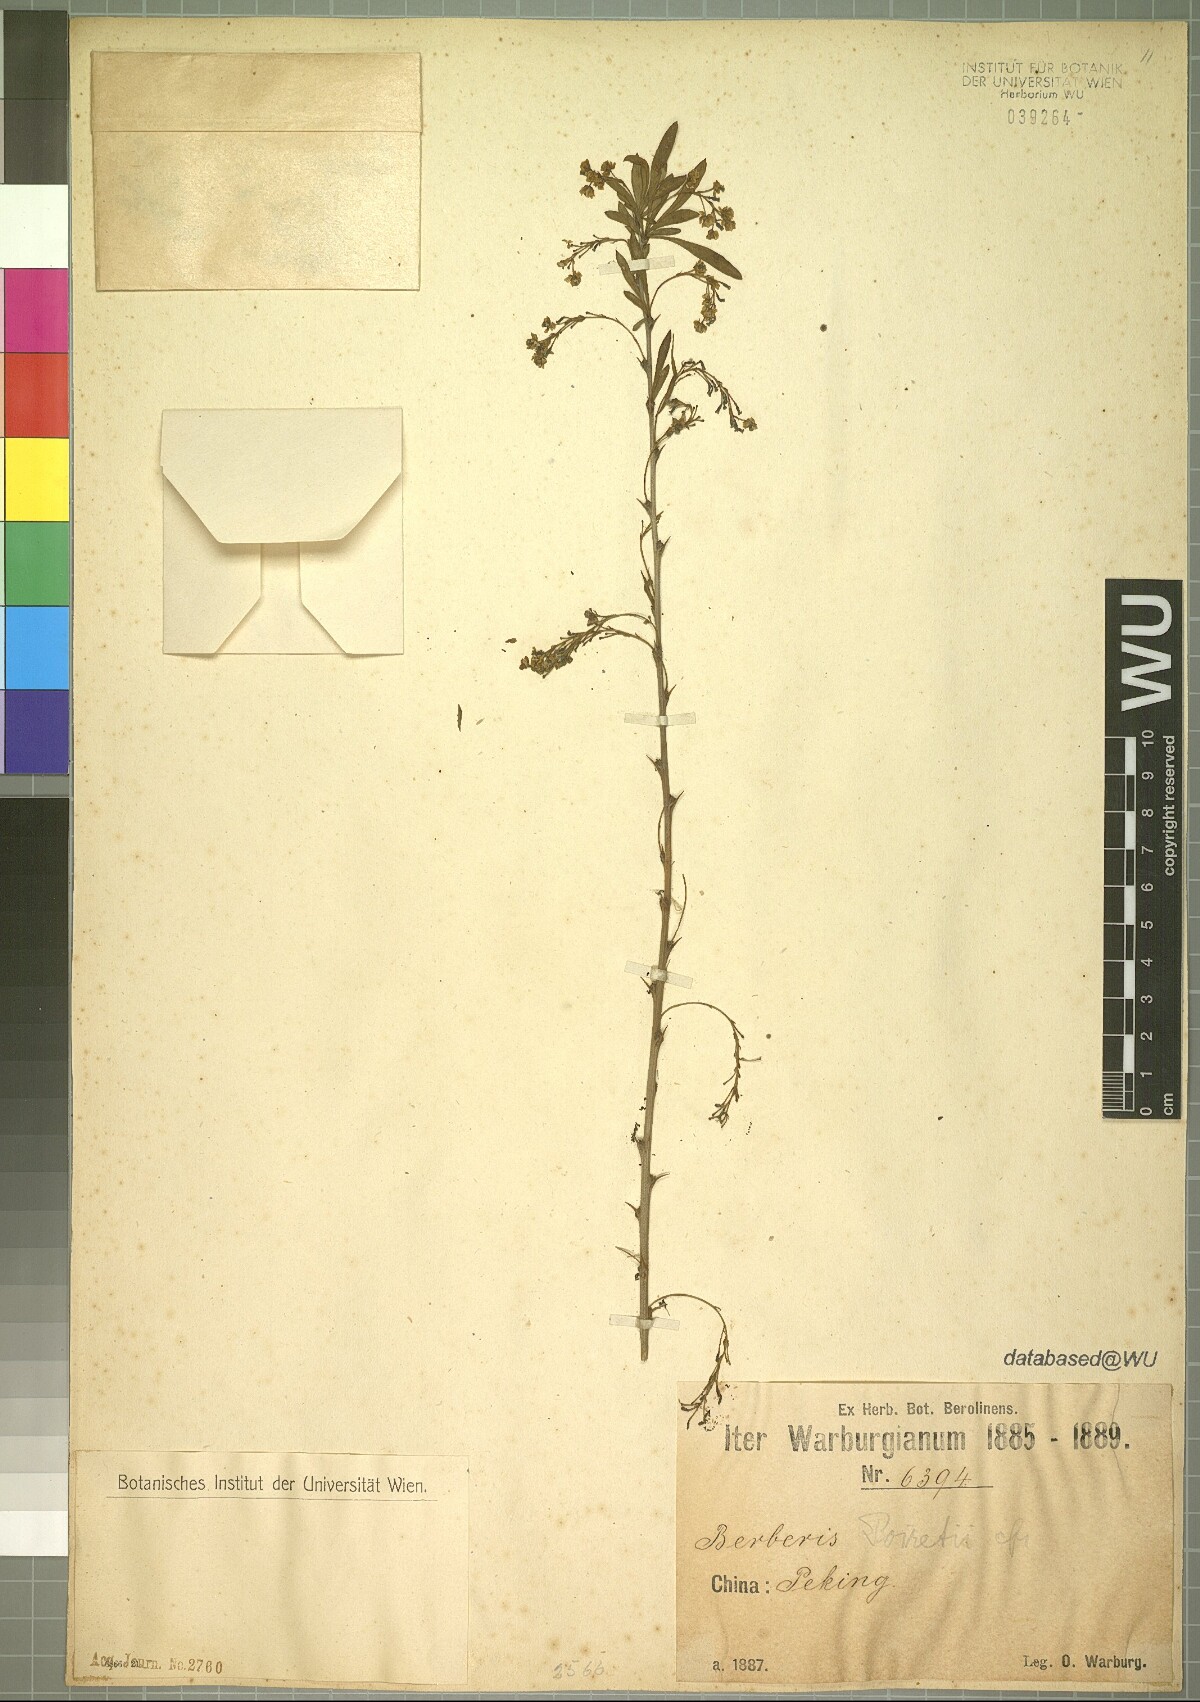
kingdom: Plantae
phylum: Tracheophyta
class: Magnoliopsida
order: Ranunculales
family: Berberidaceae
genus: Berberis
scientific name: Berberis chinensis
